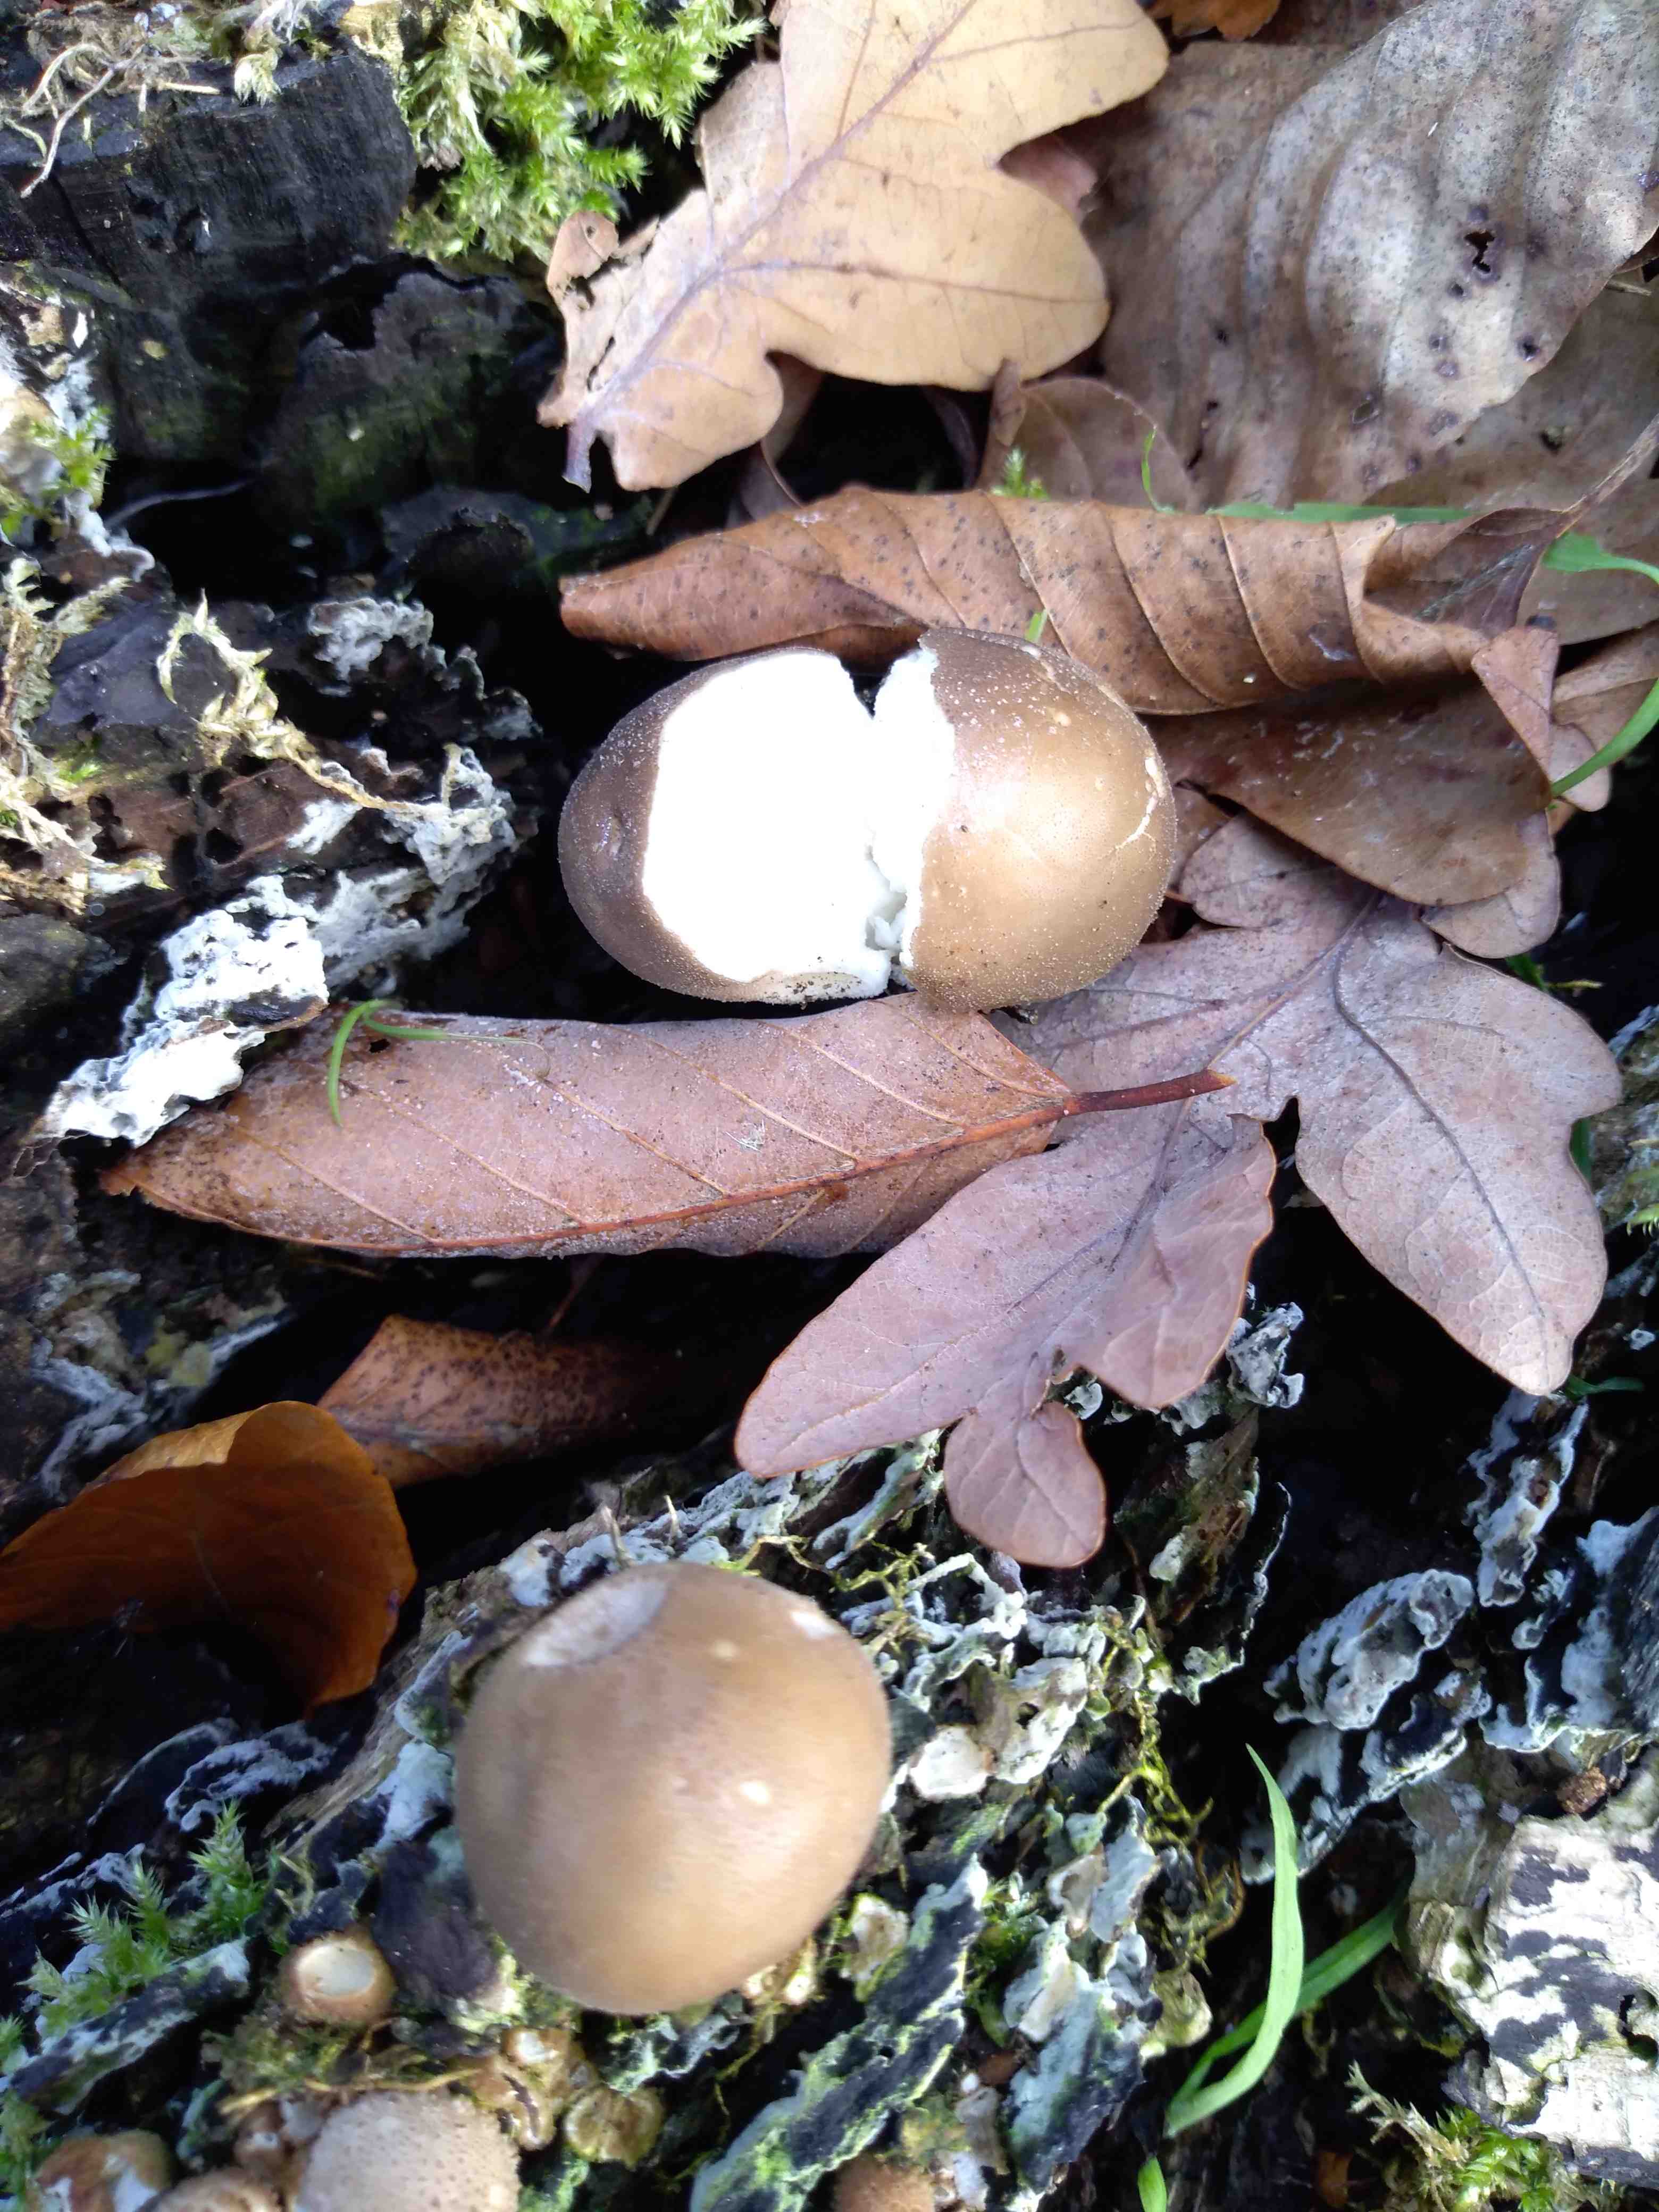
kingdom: Fungi
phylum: Basidiomycota
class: Agaricomycetes
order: Agaricales
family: Lycoperdaceae
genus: Apioperdon
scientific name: Apioperdon pyriforme
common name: pære-støvbold
